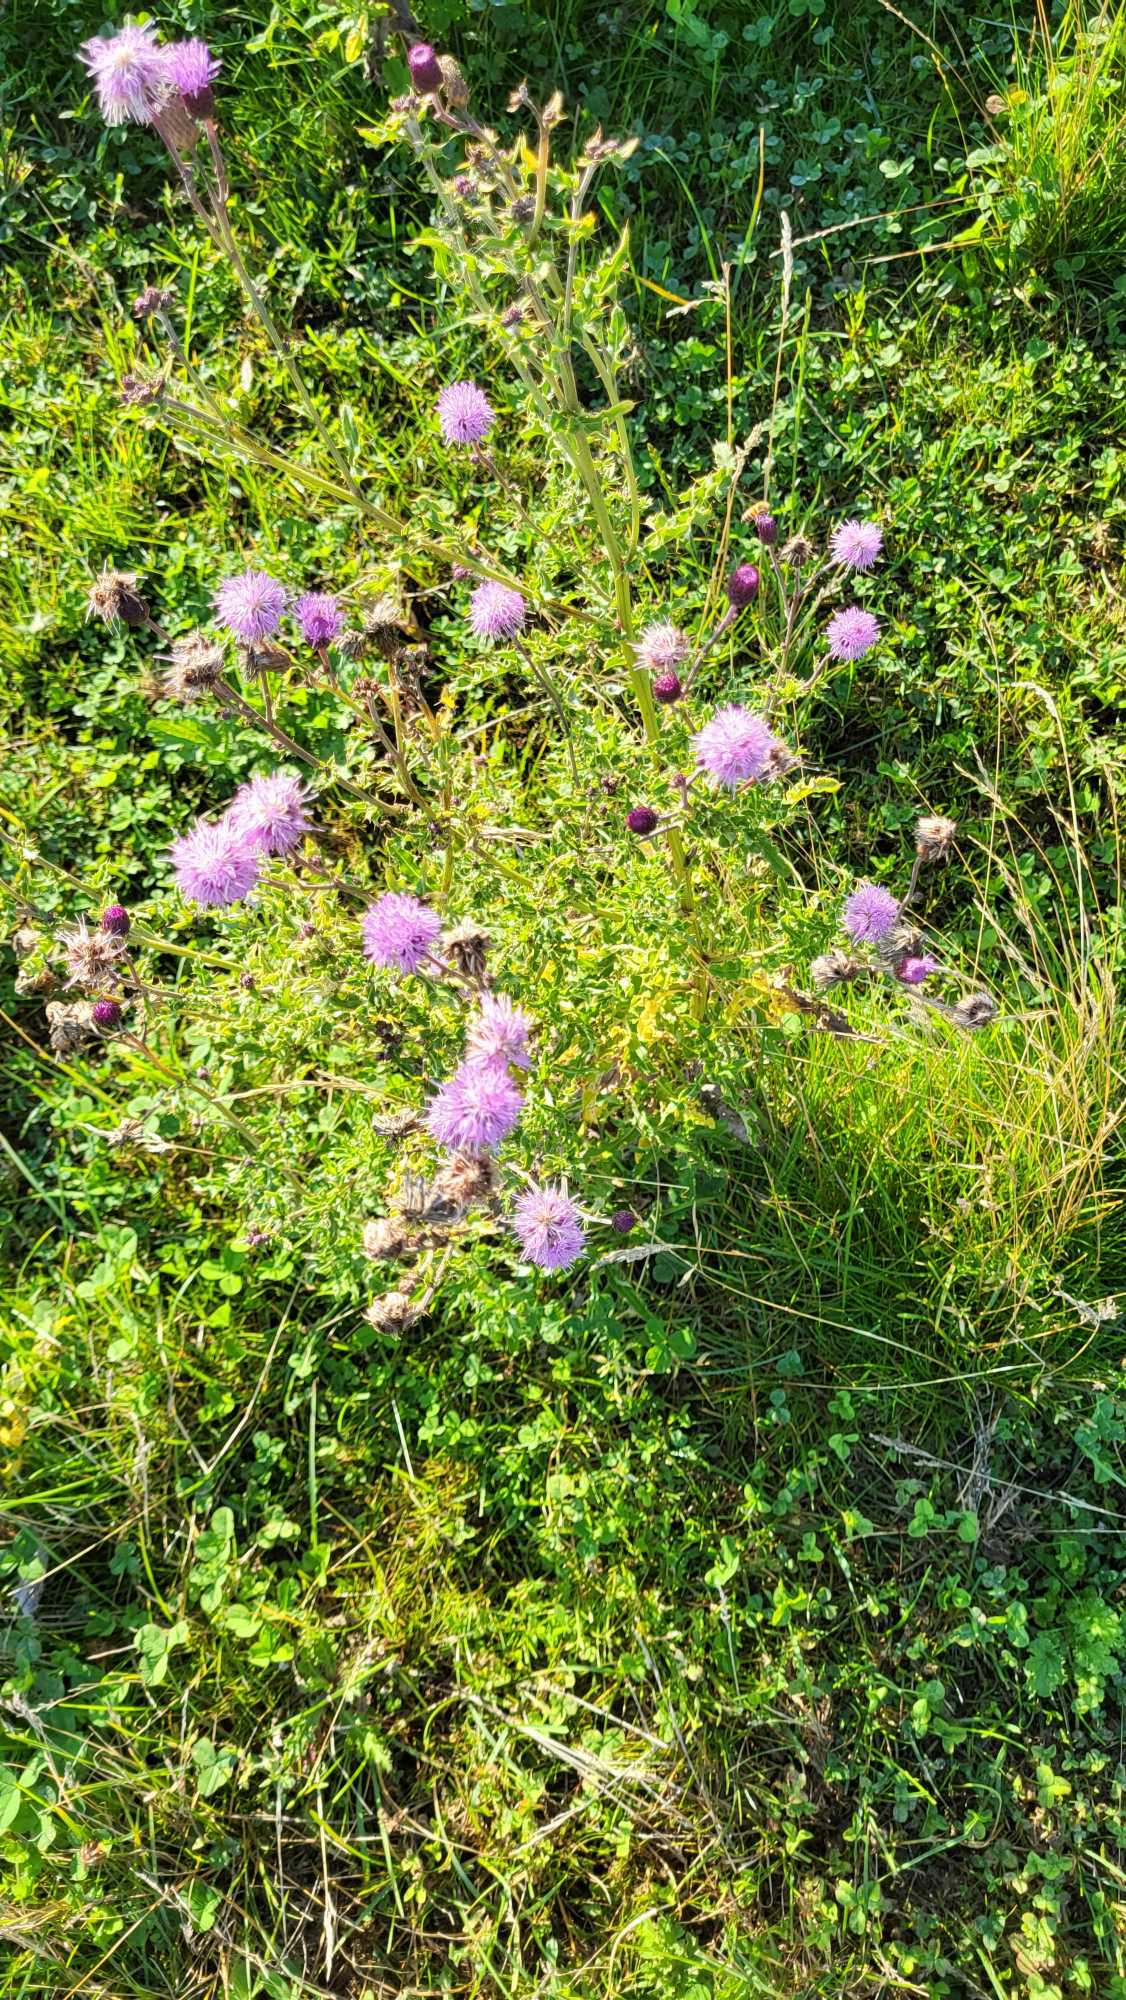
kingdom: Plantae
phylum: Tracheophyta
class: Magnoliopsida
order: Asterales
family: Asteraceae
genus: Cirsium
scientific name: Cirsium arvense
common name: Ager-tidsel
